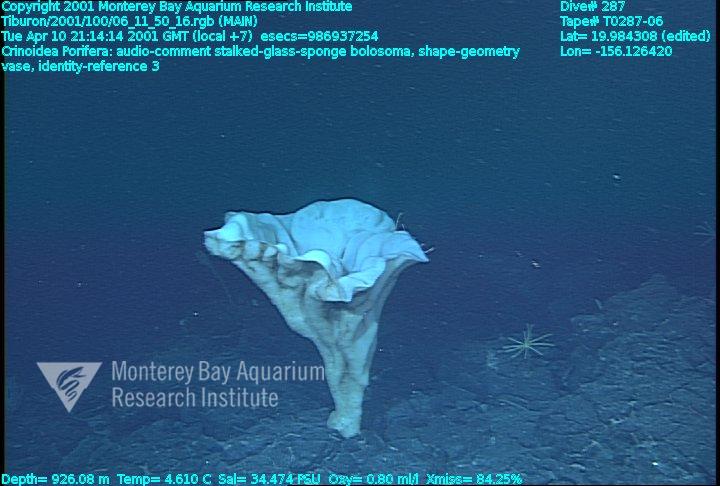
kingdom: Animalia
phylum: Porifera
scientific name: Porifera
